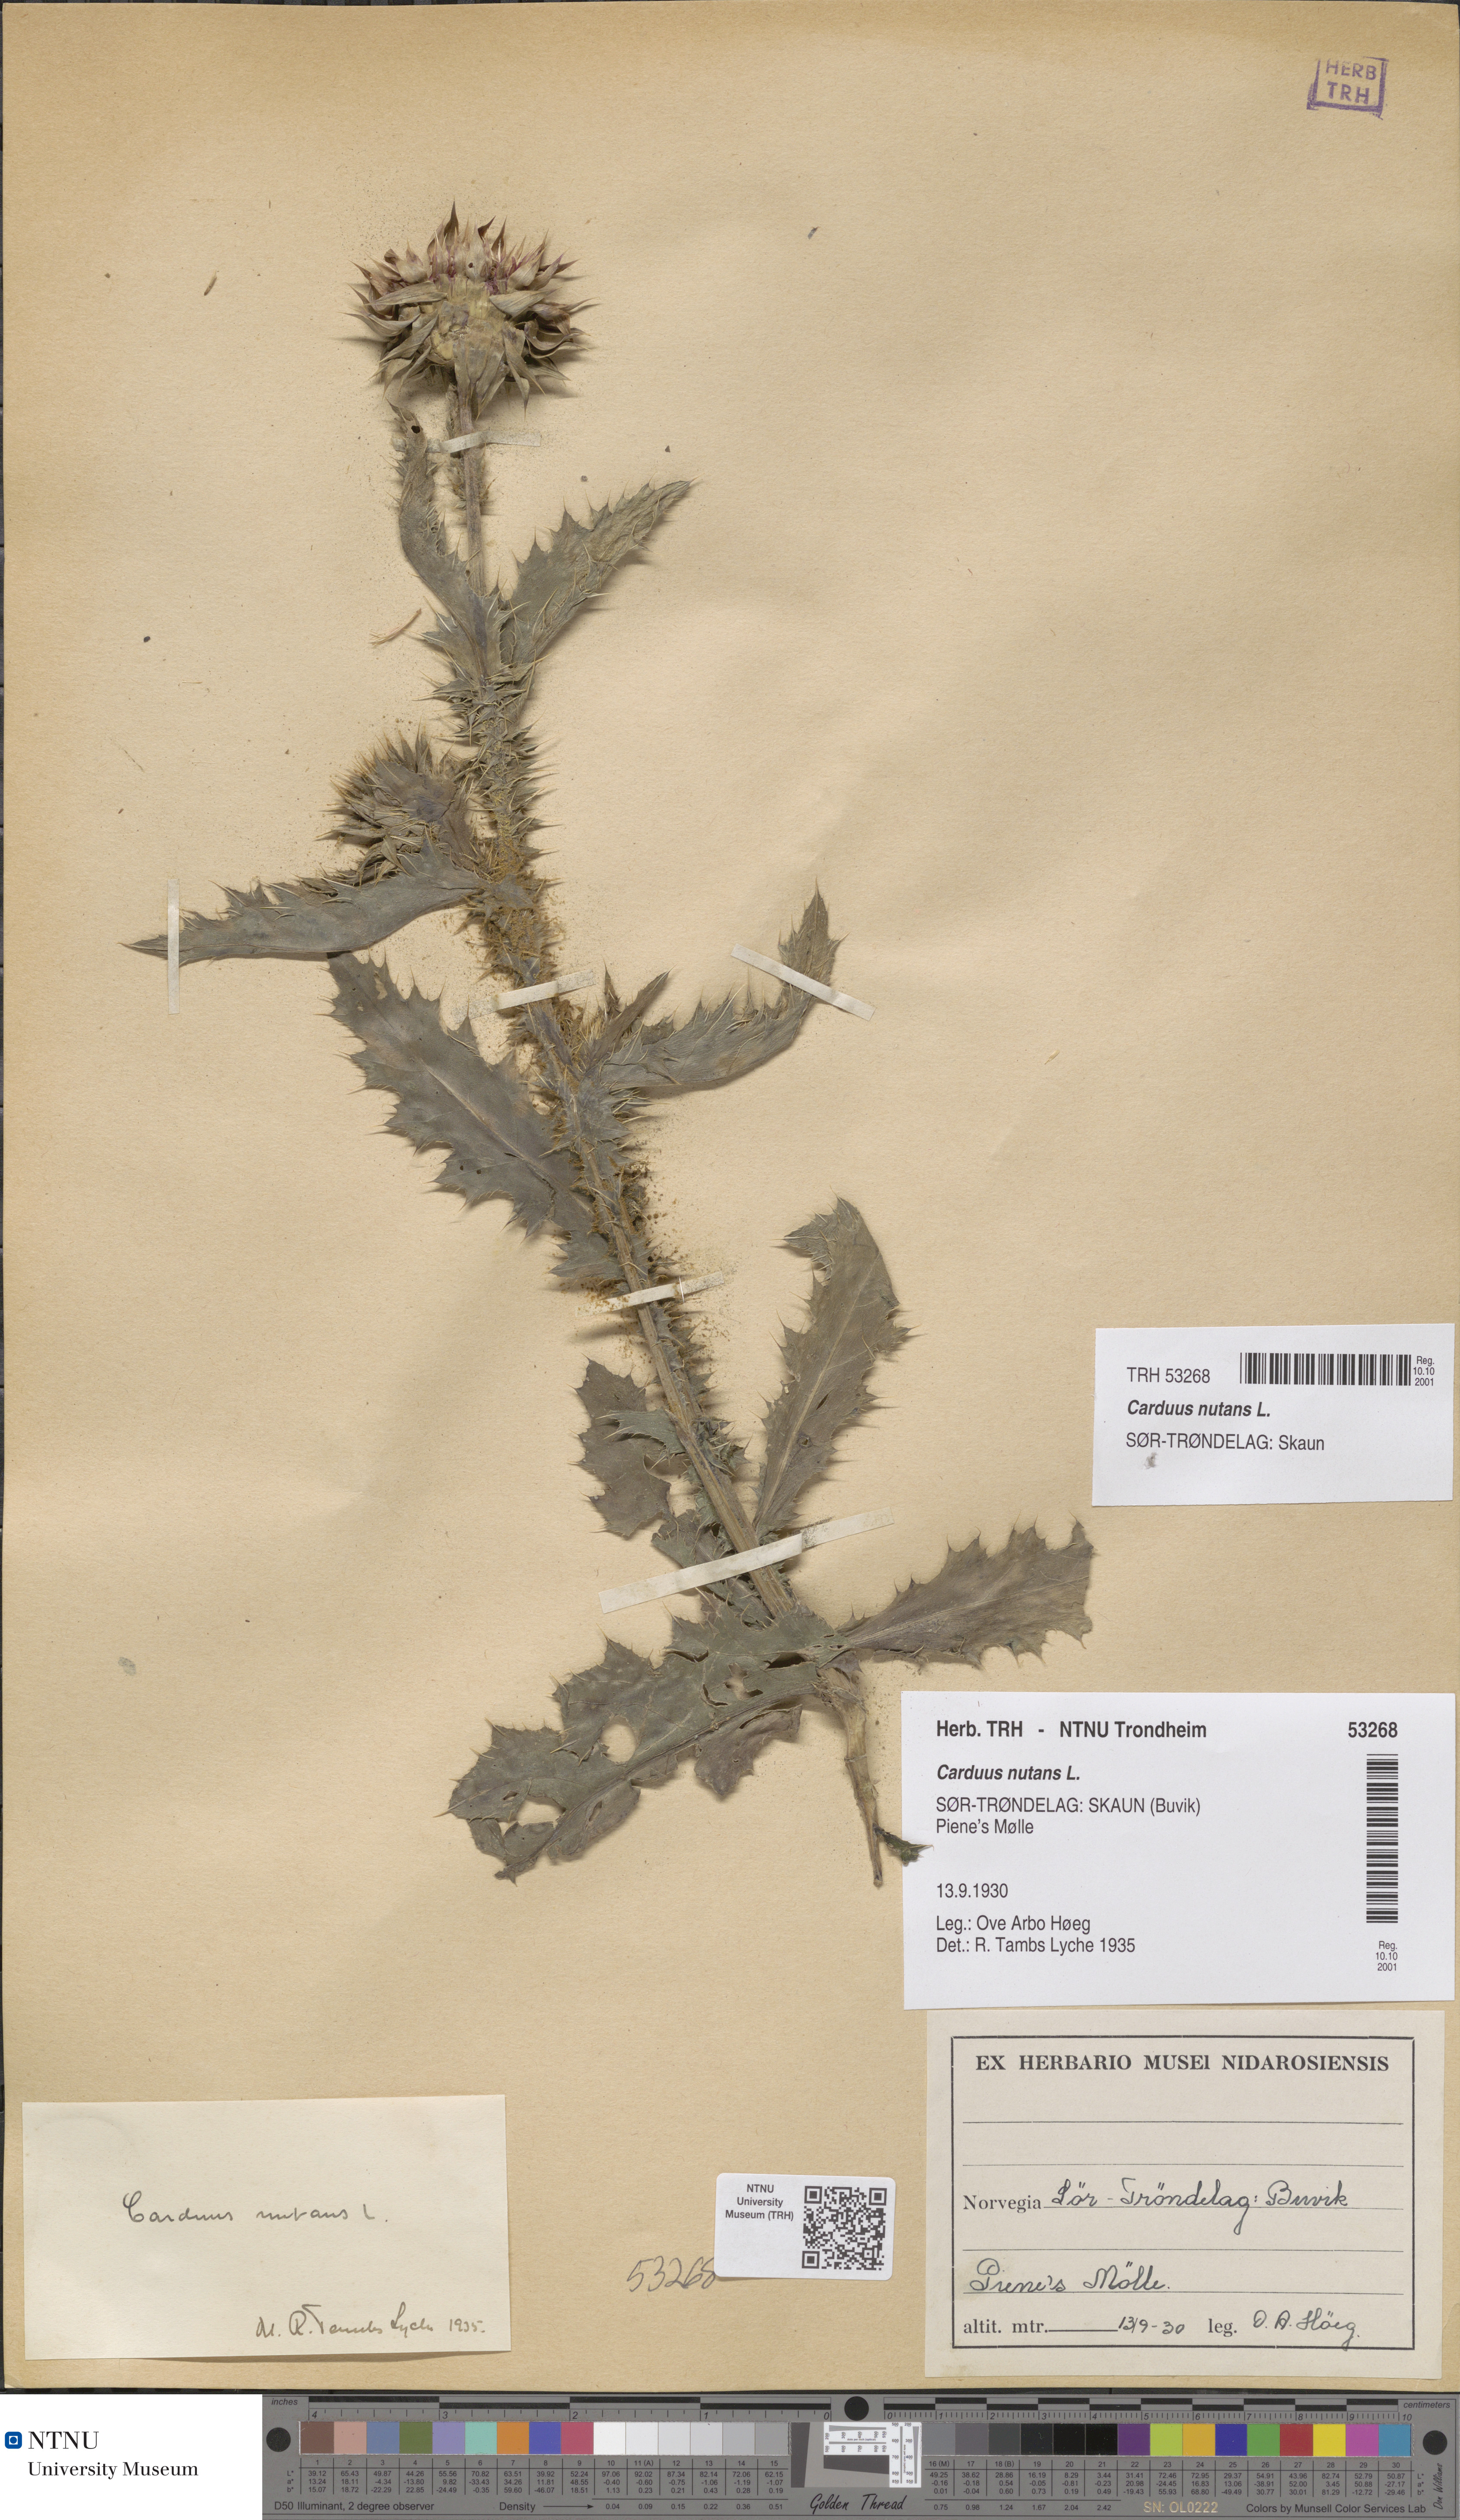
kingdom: Plantae
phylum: Tracheophyta
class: Magnoliopsida
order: Asterales
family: Asteraceae
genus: Carduus
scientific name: Carduus nutans
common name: Musk thistle
